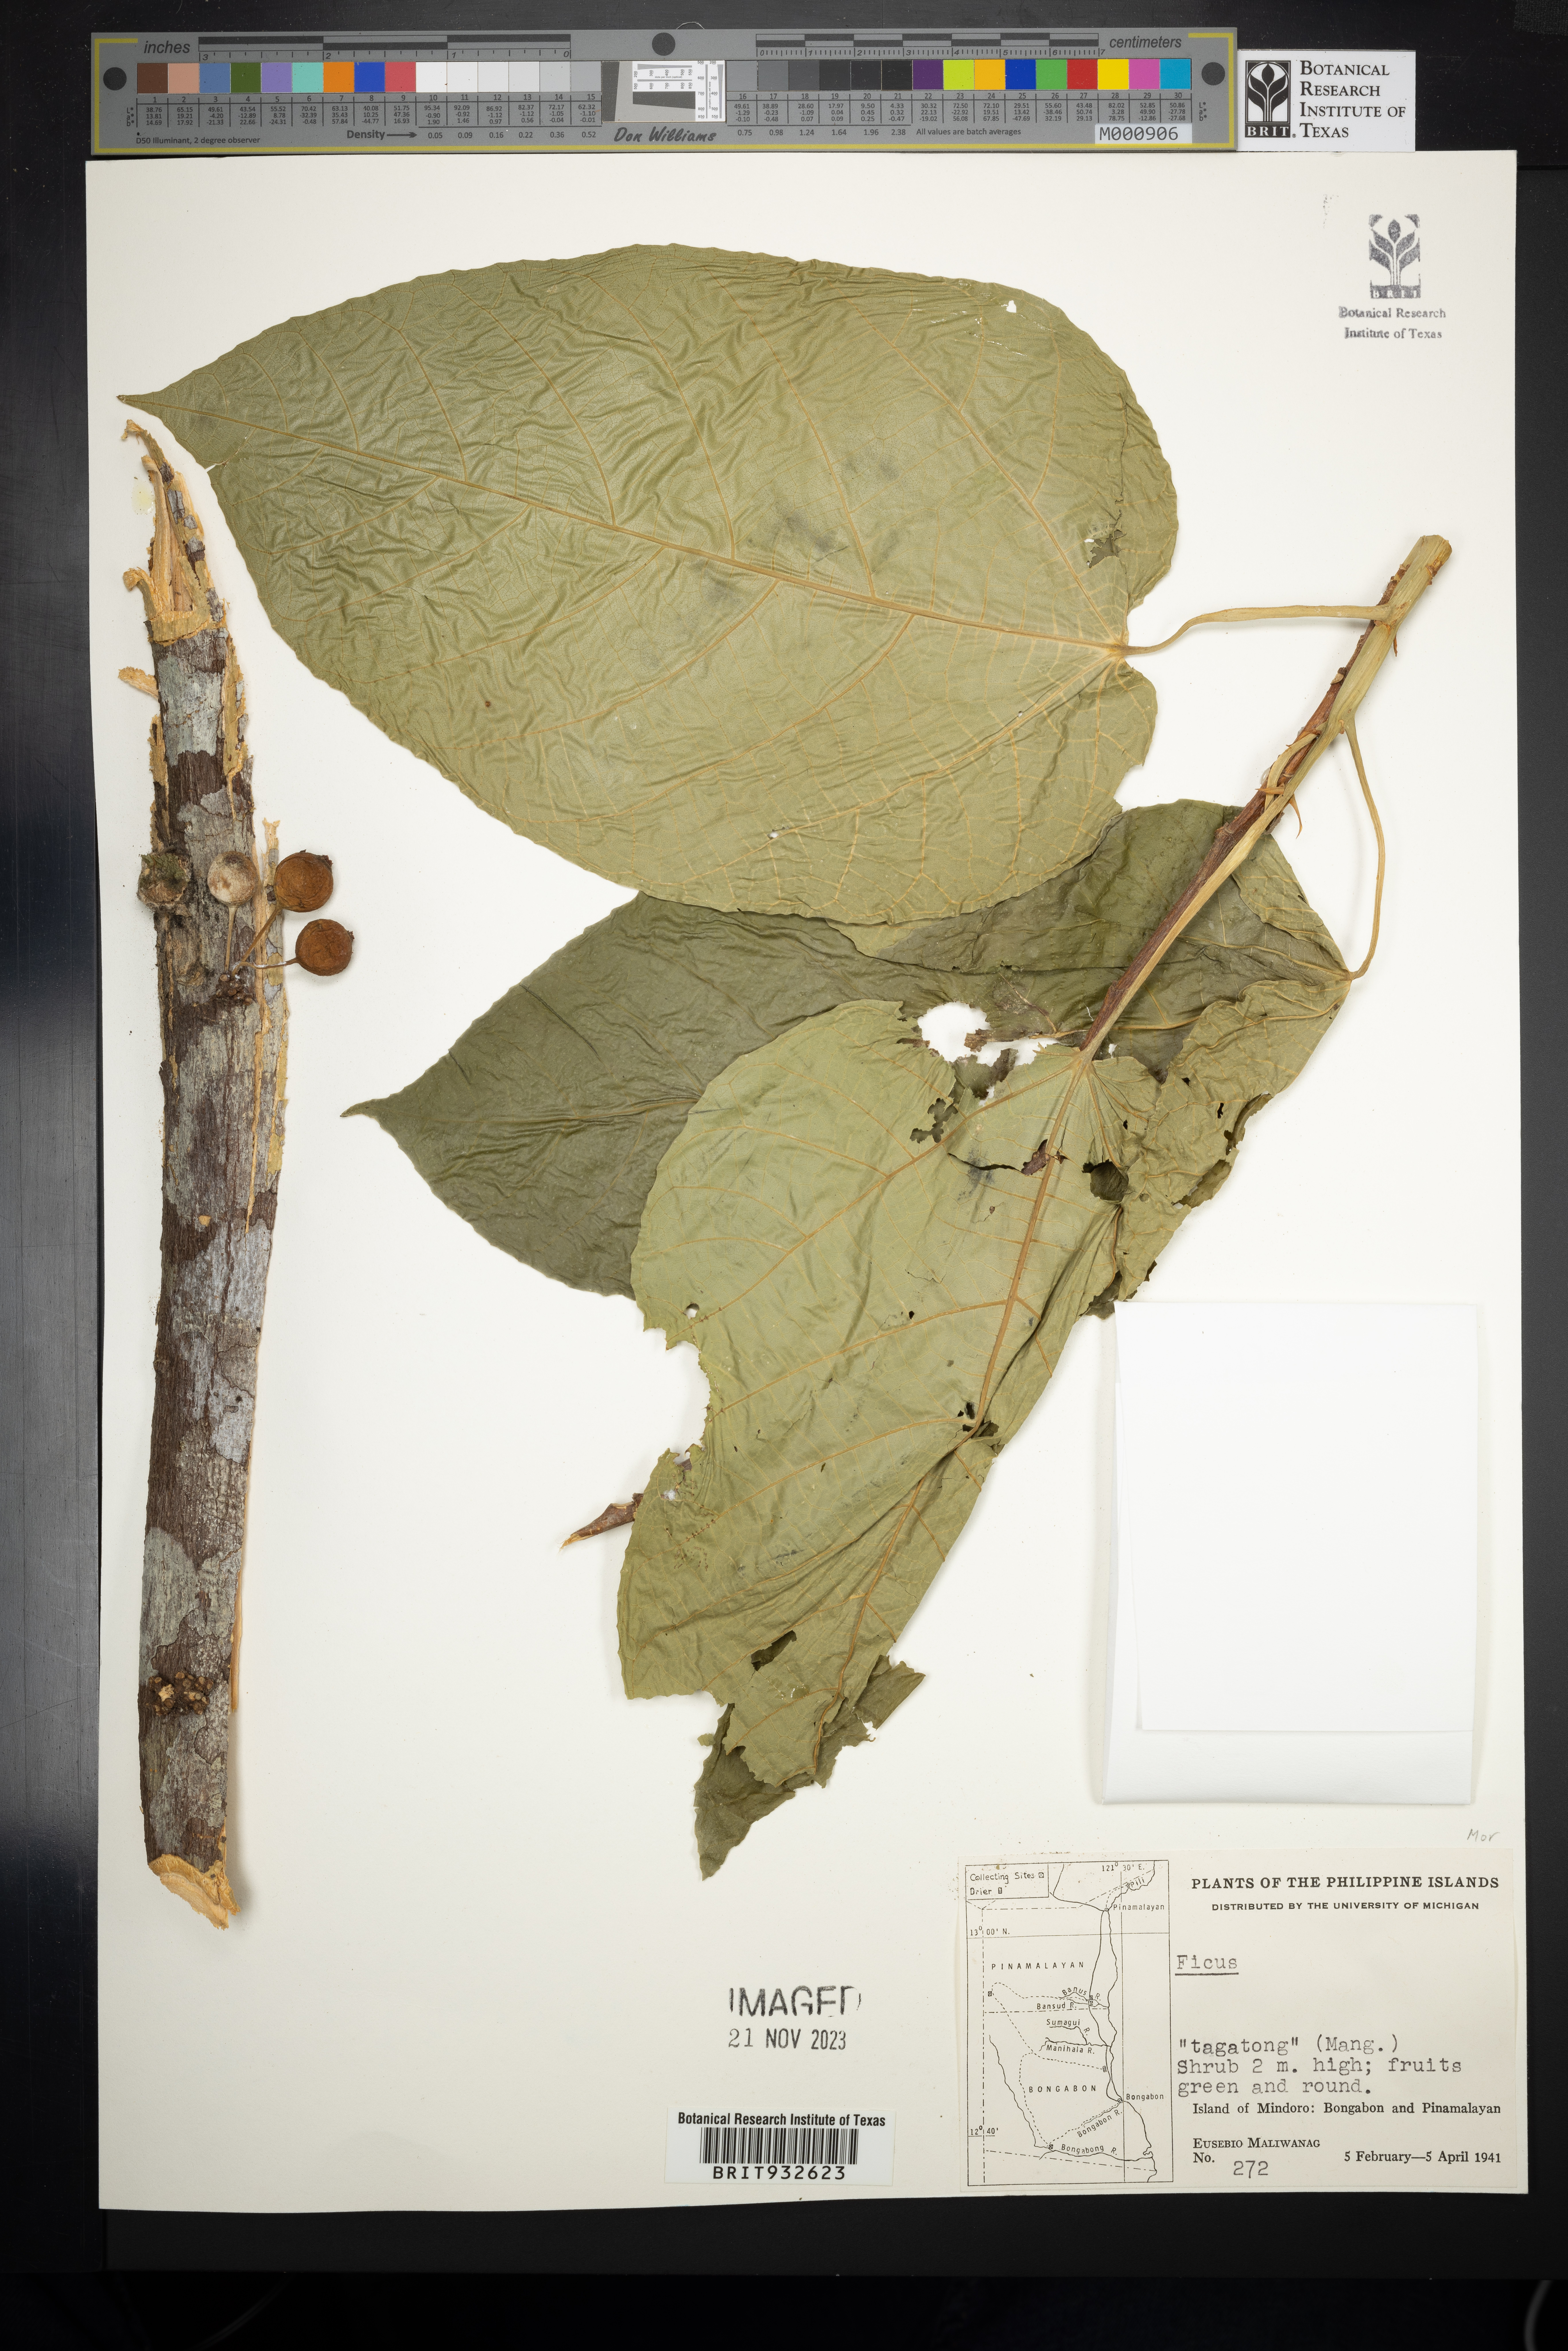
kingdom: Plantae
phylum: Tracheophyta
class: Magnoliopsida
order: Rosales
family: Moraceae
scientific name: Moraceae
